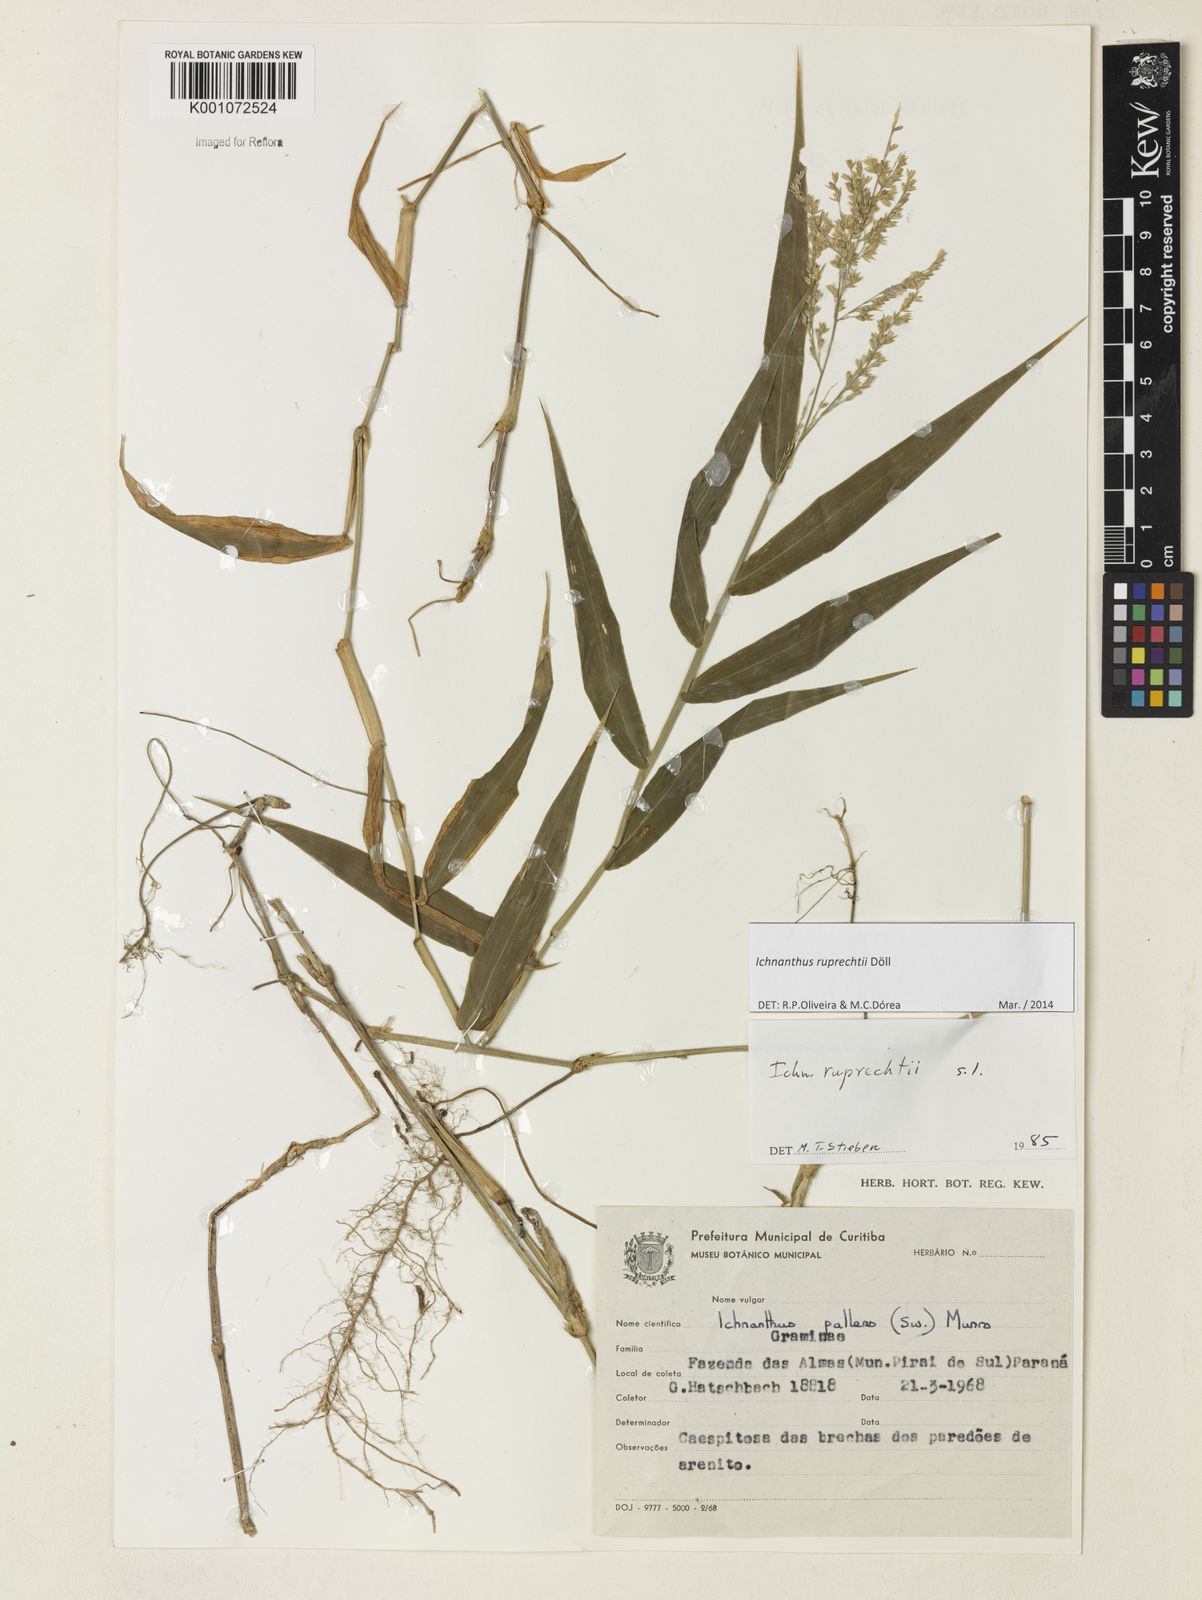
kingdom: Plantae
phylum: Tracheophyta
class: Liliopsida
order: Poales
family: Poaceae
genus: Ichnanthus
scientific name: Ichnanthus
